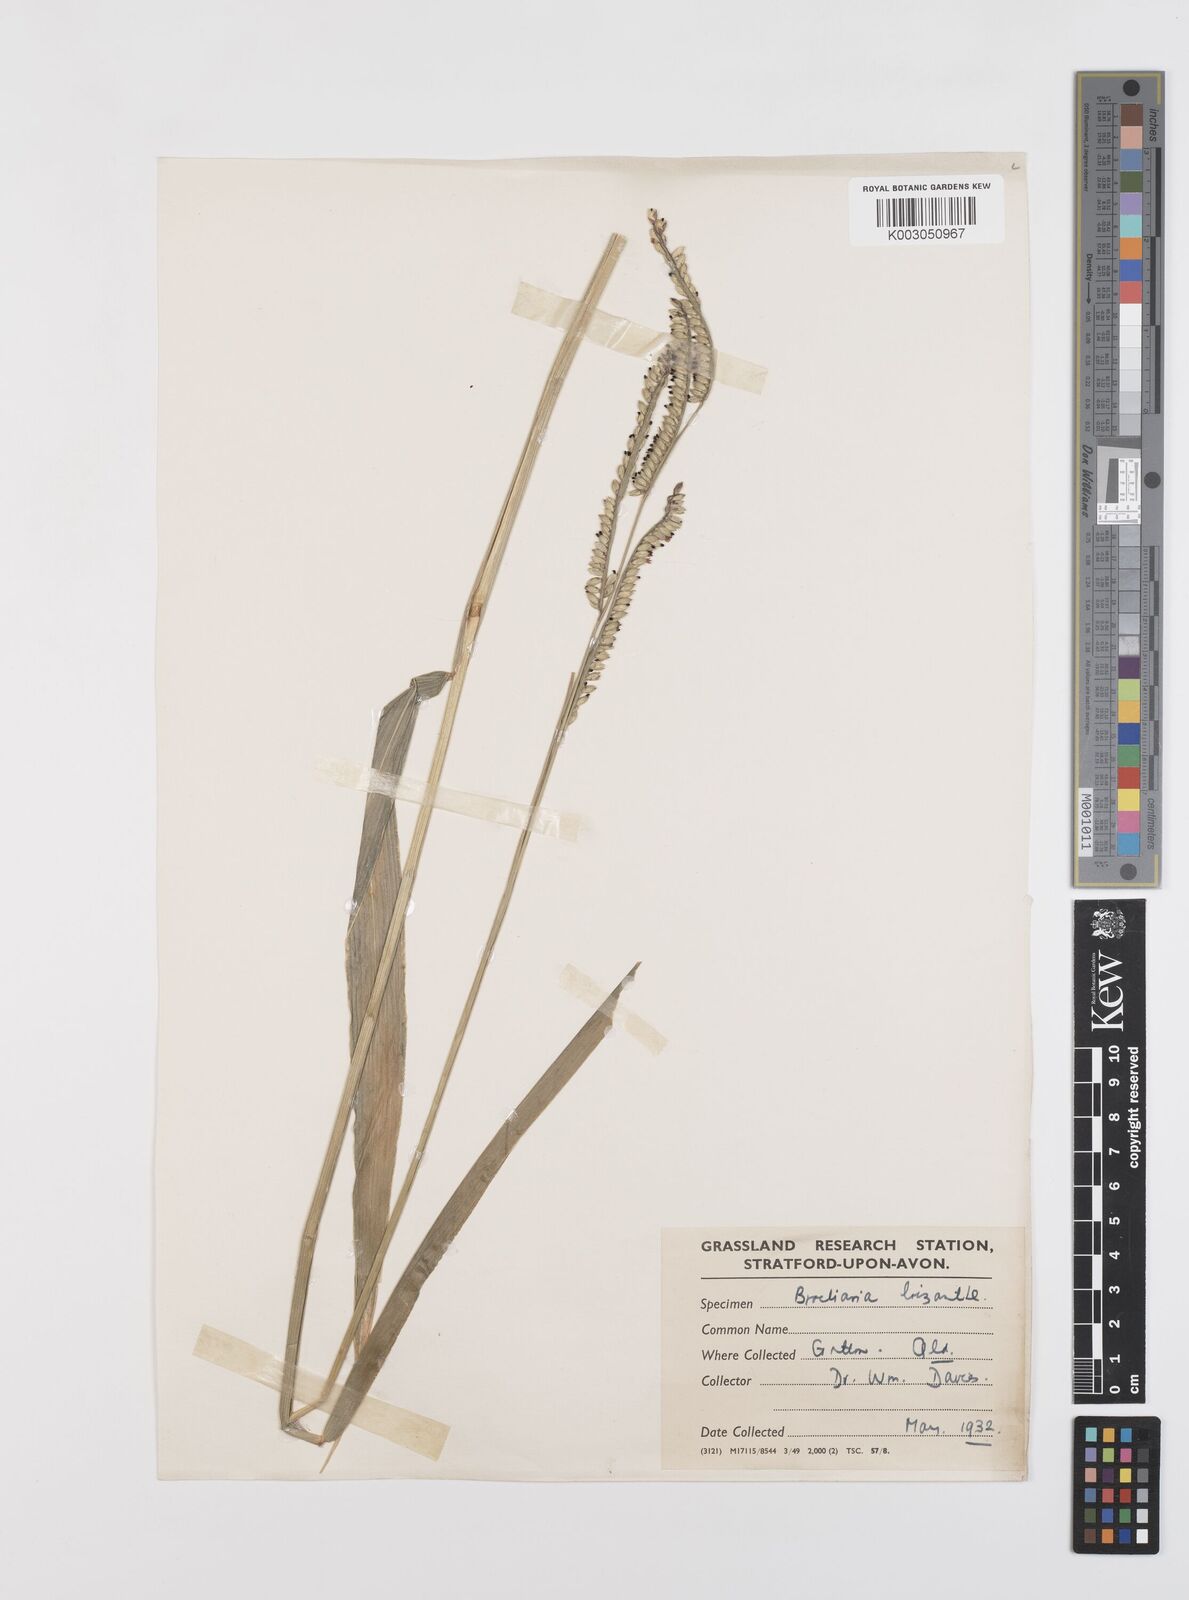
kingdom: Plantae
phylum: Tracheophyta
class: Liliopsida
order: Poales
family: Poaceae
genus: Urochloa
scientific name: Urochloa eminii
